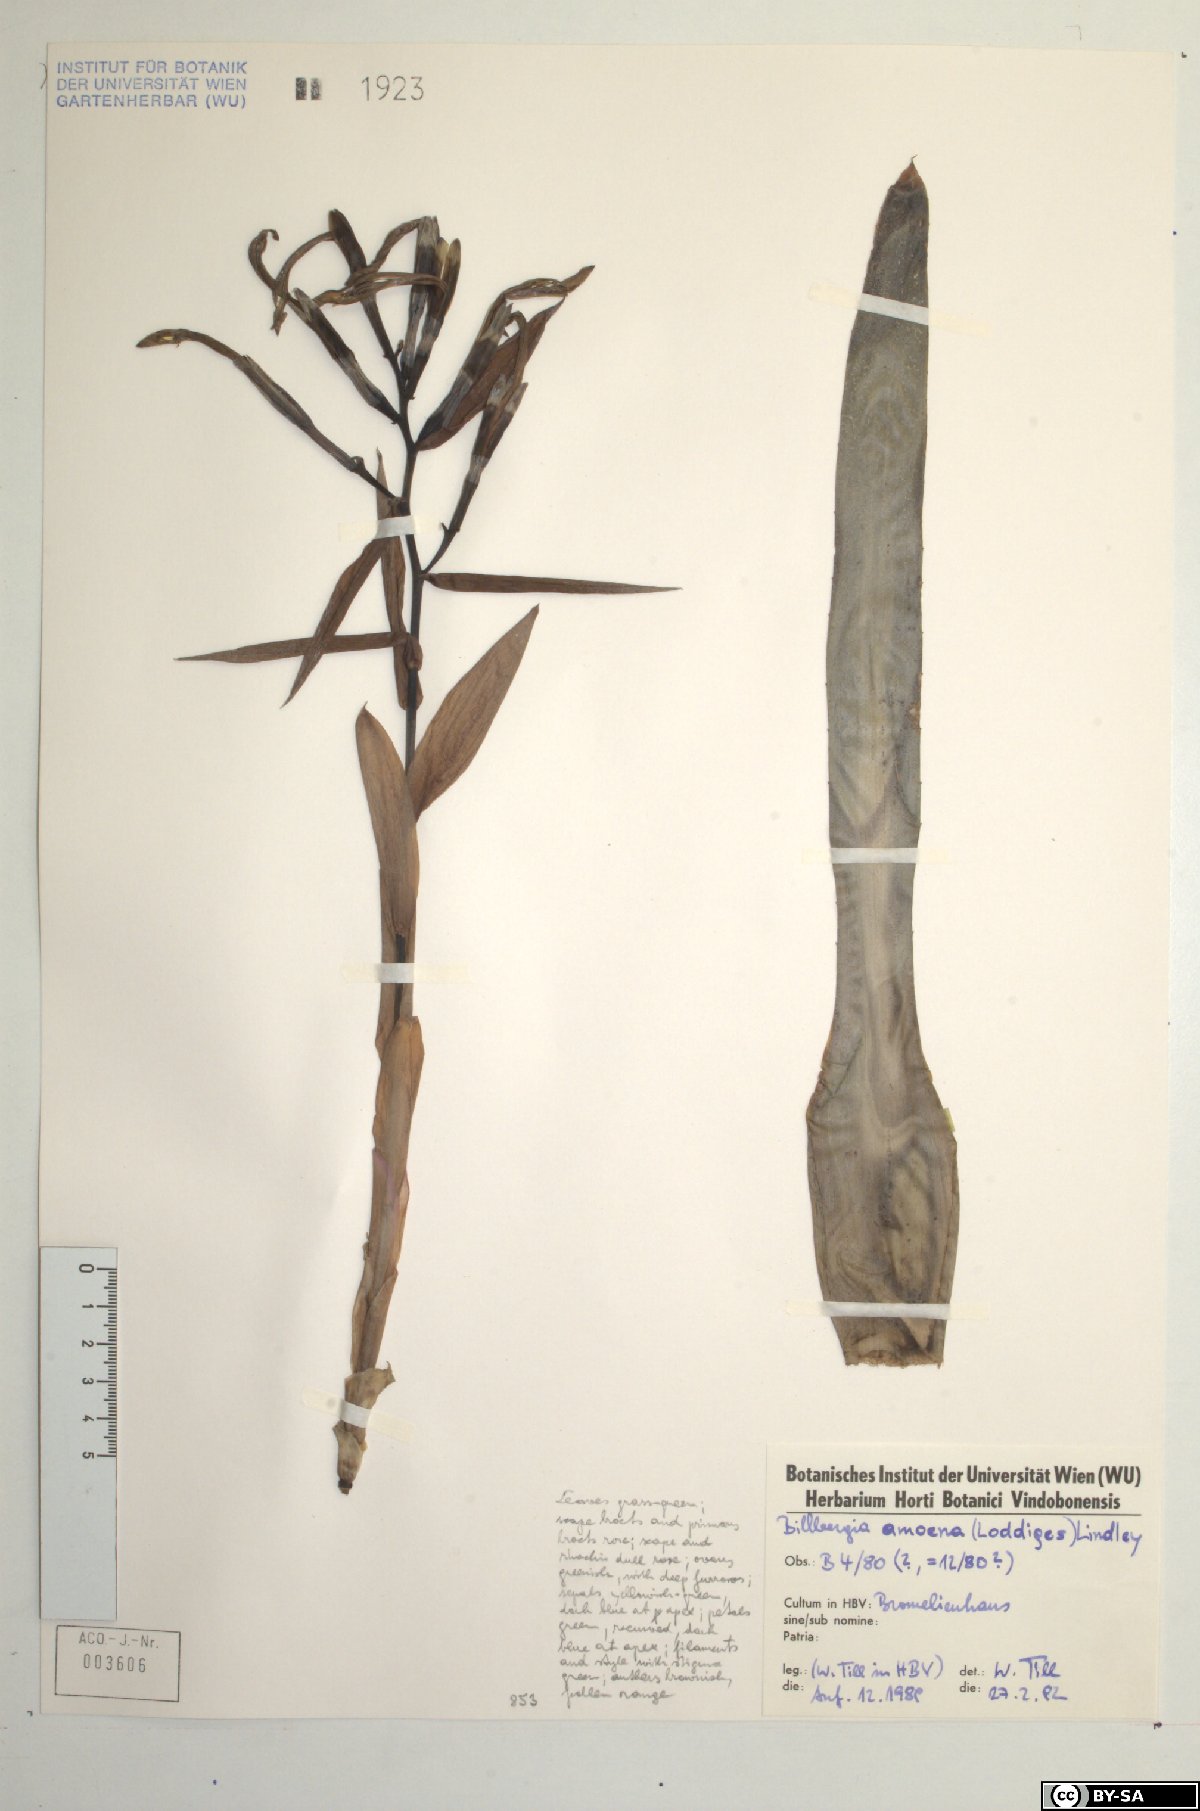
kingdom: Plantae
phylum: Tracheophyta
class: Liliopsida
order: Poales
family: Bromeliaceae
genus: Billbergia
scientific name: Billbergia amoena
